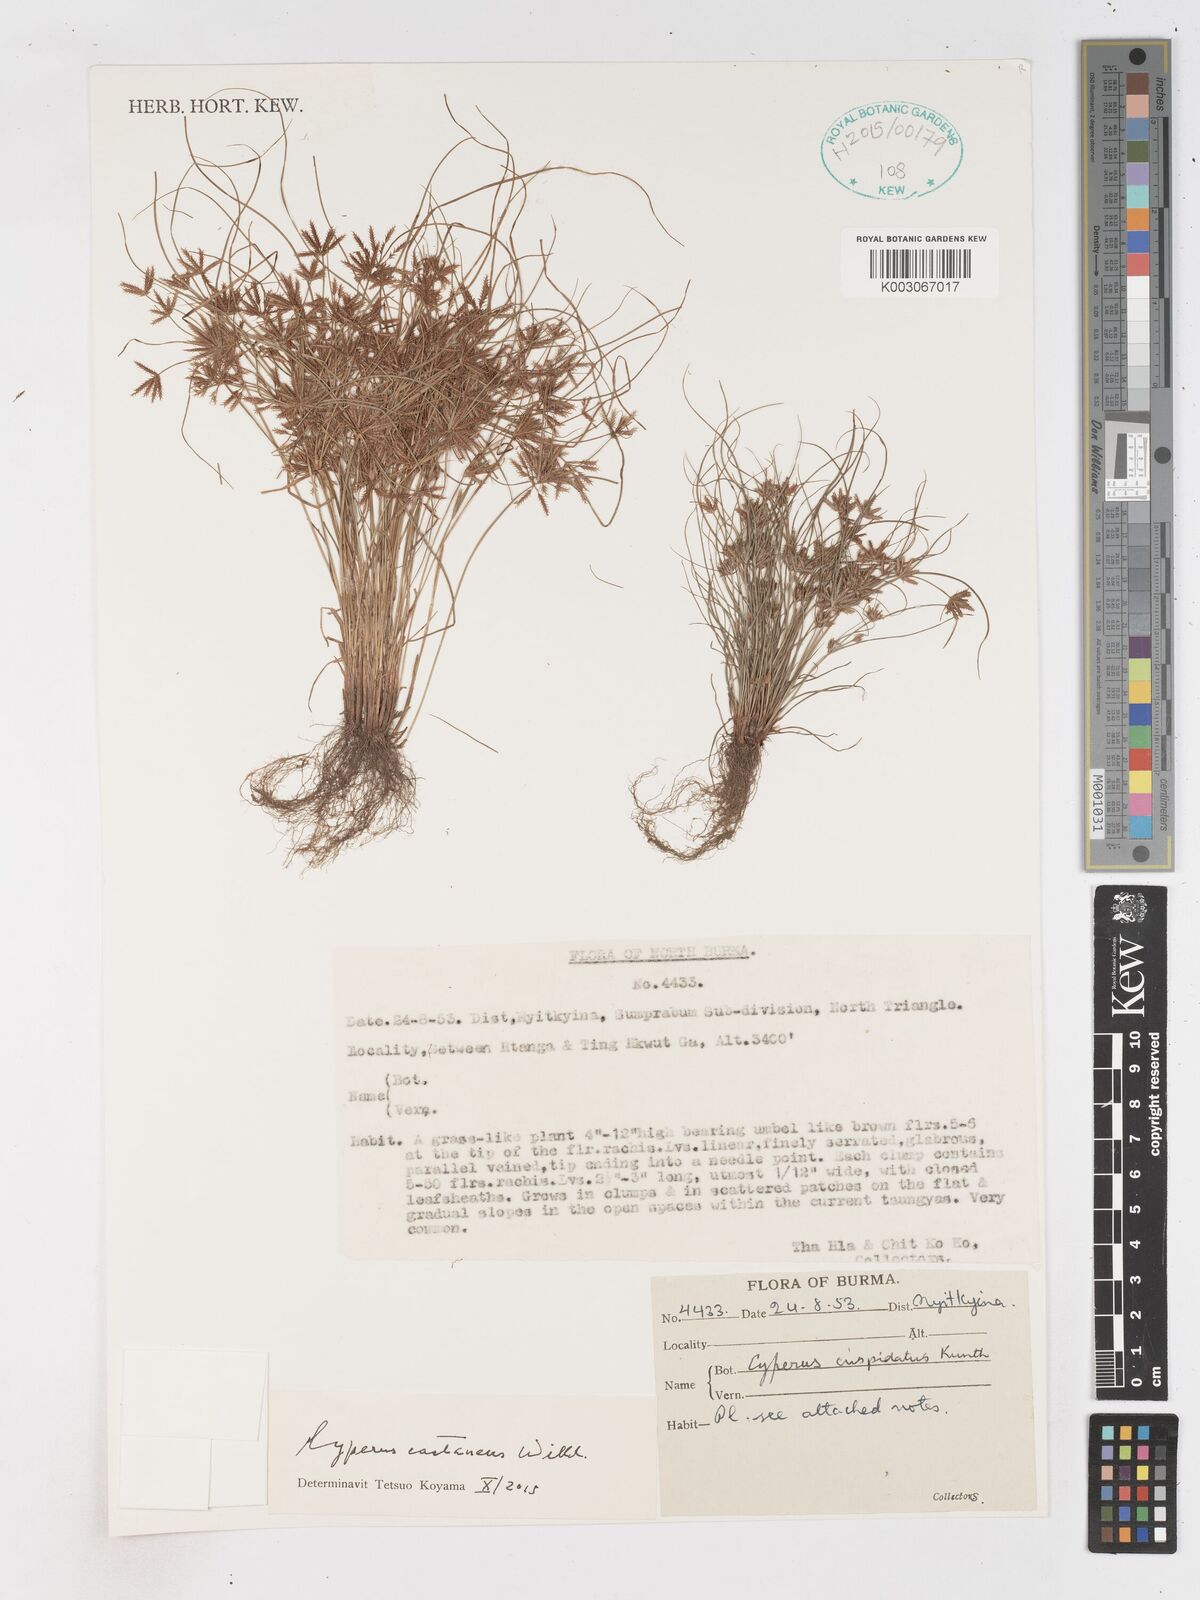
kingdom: Plantae
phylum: Tracheophyta
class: Liliopsida
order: Poales
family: Cyperaceae
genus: Cyperus
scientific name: Cyperus castaneus
